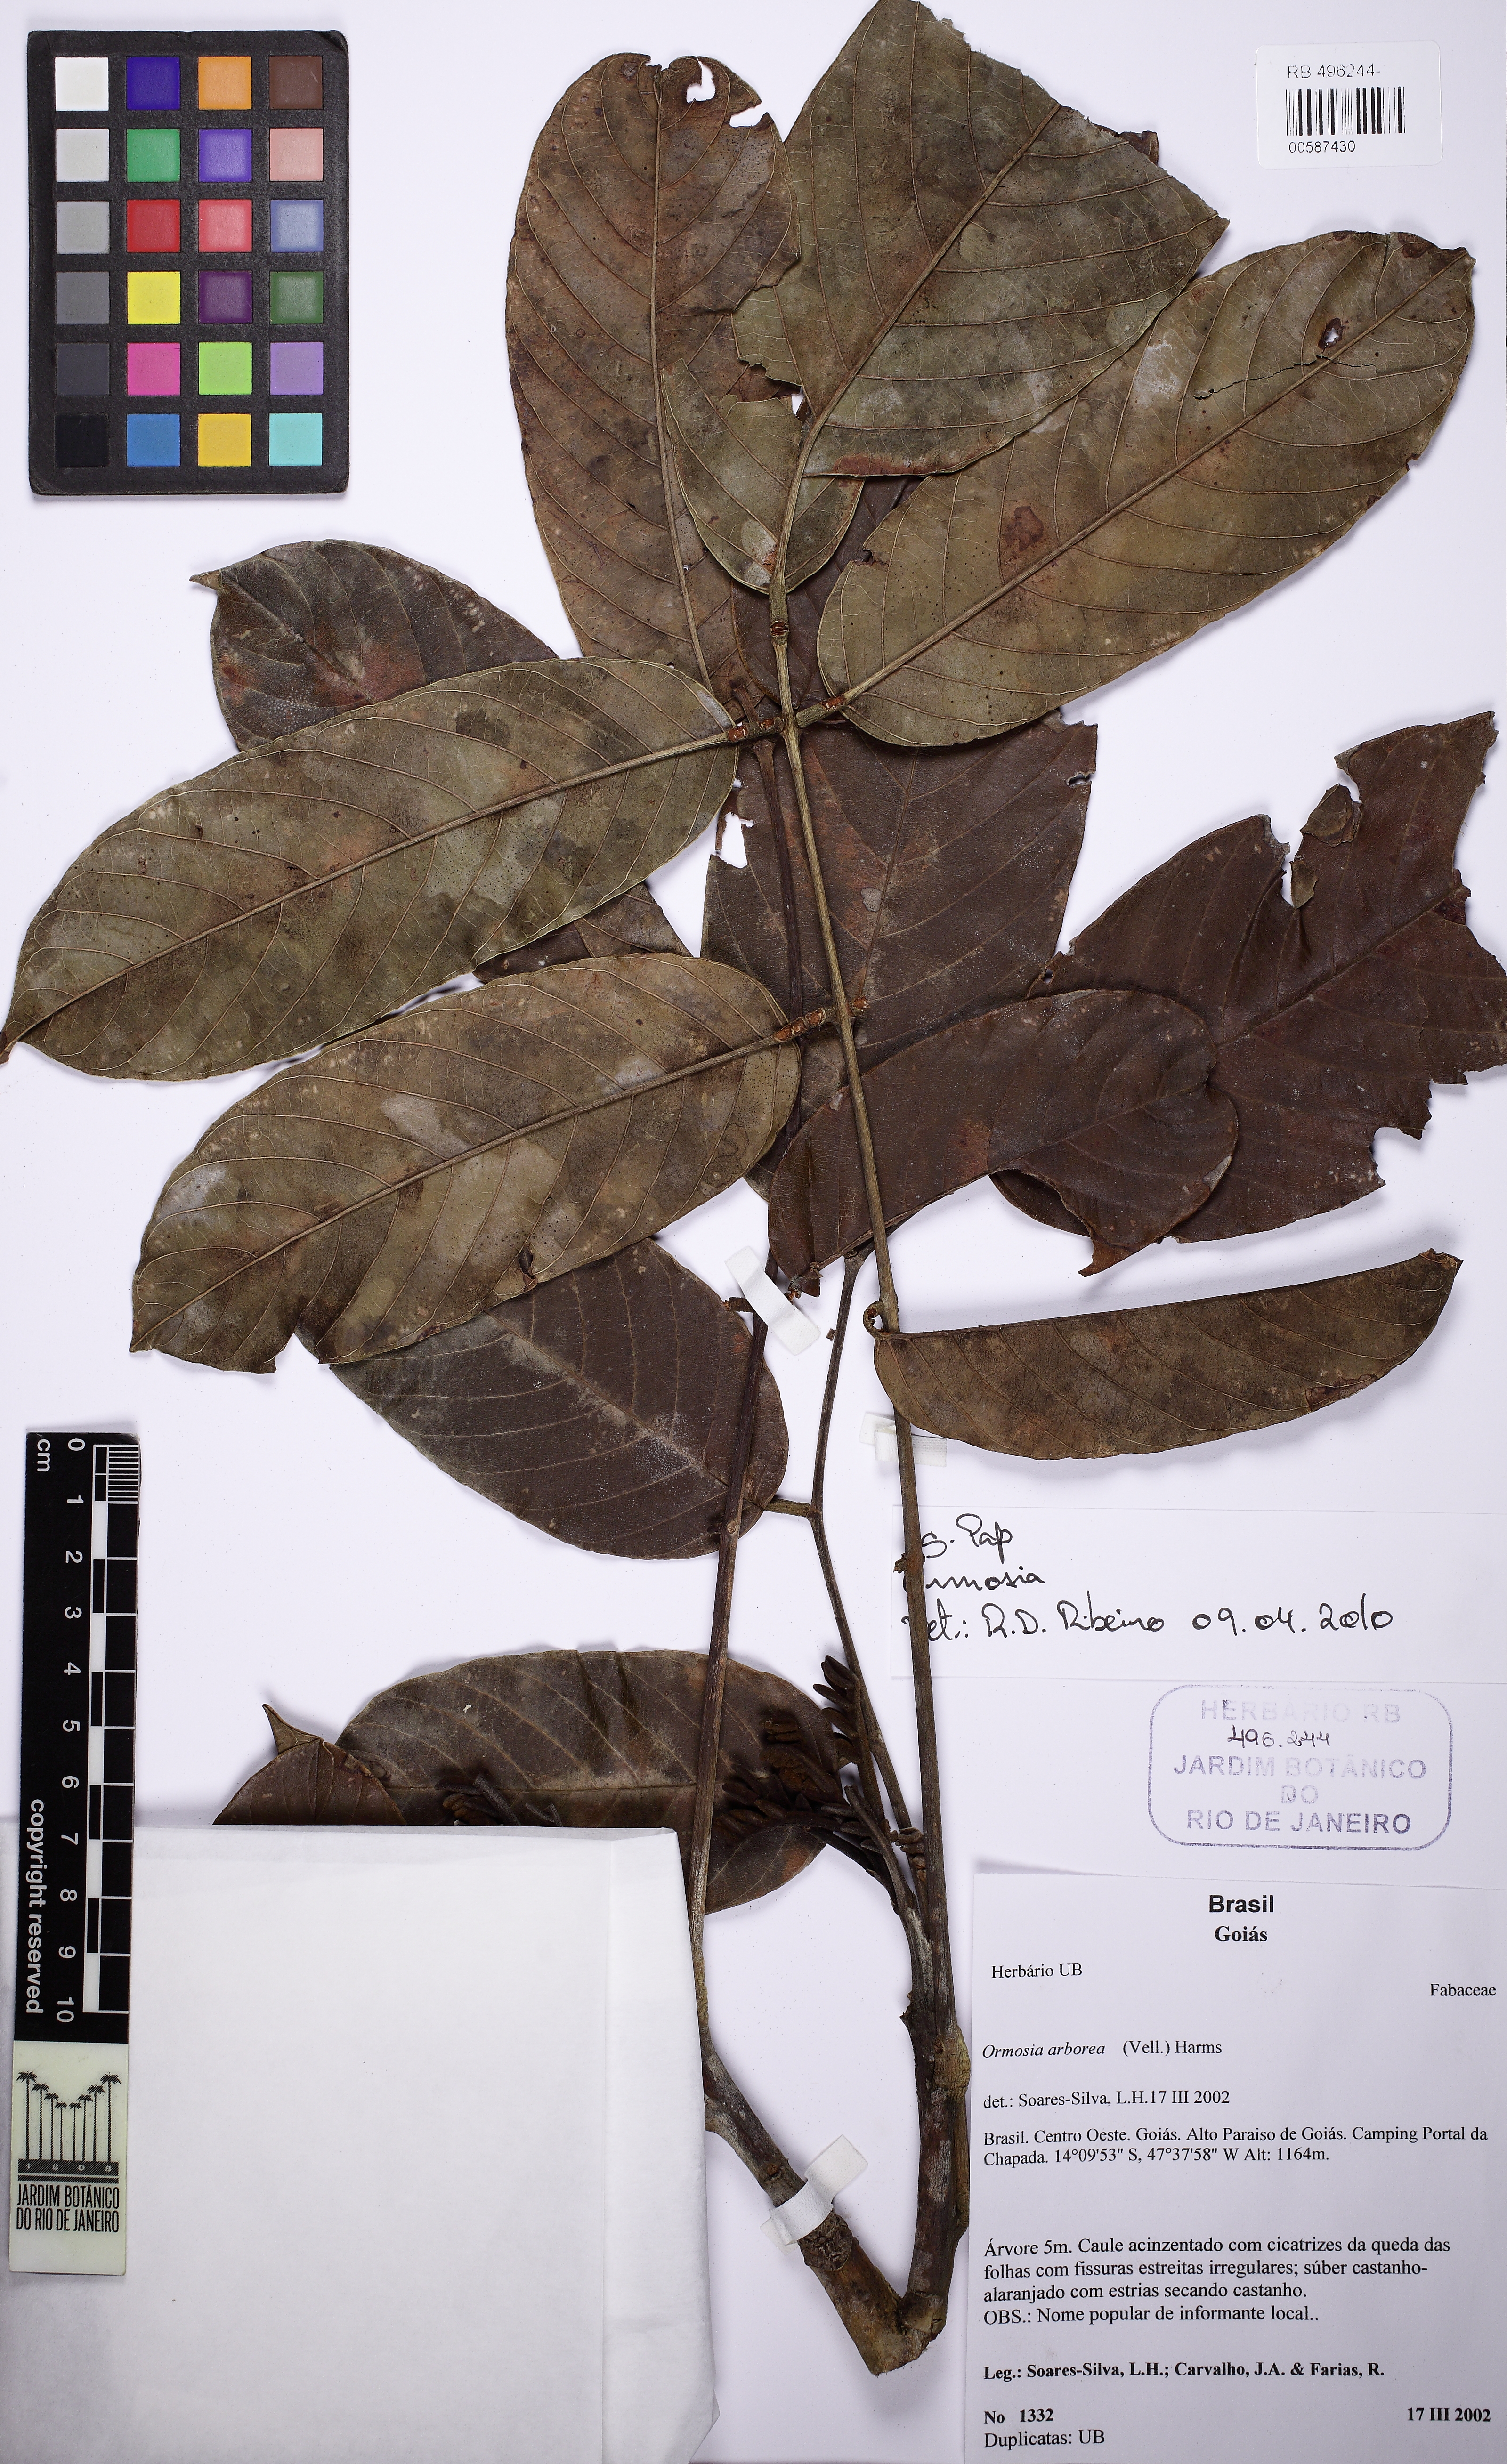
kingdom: Plantae
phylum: Tracheophyta
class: Magnoliopsida
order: Fabales
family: Fabaceae
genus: Ormosia
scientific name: Ormosia
